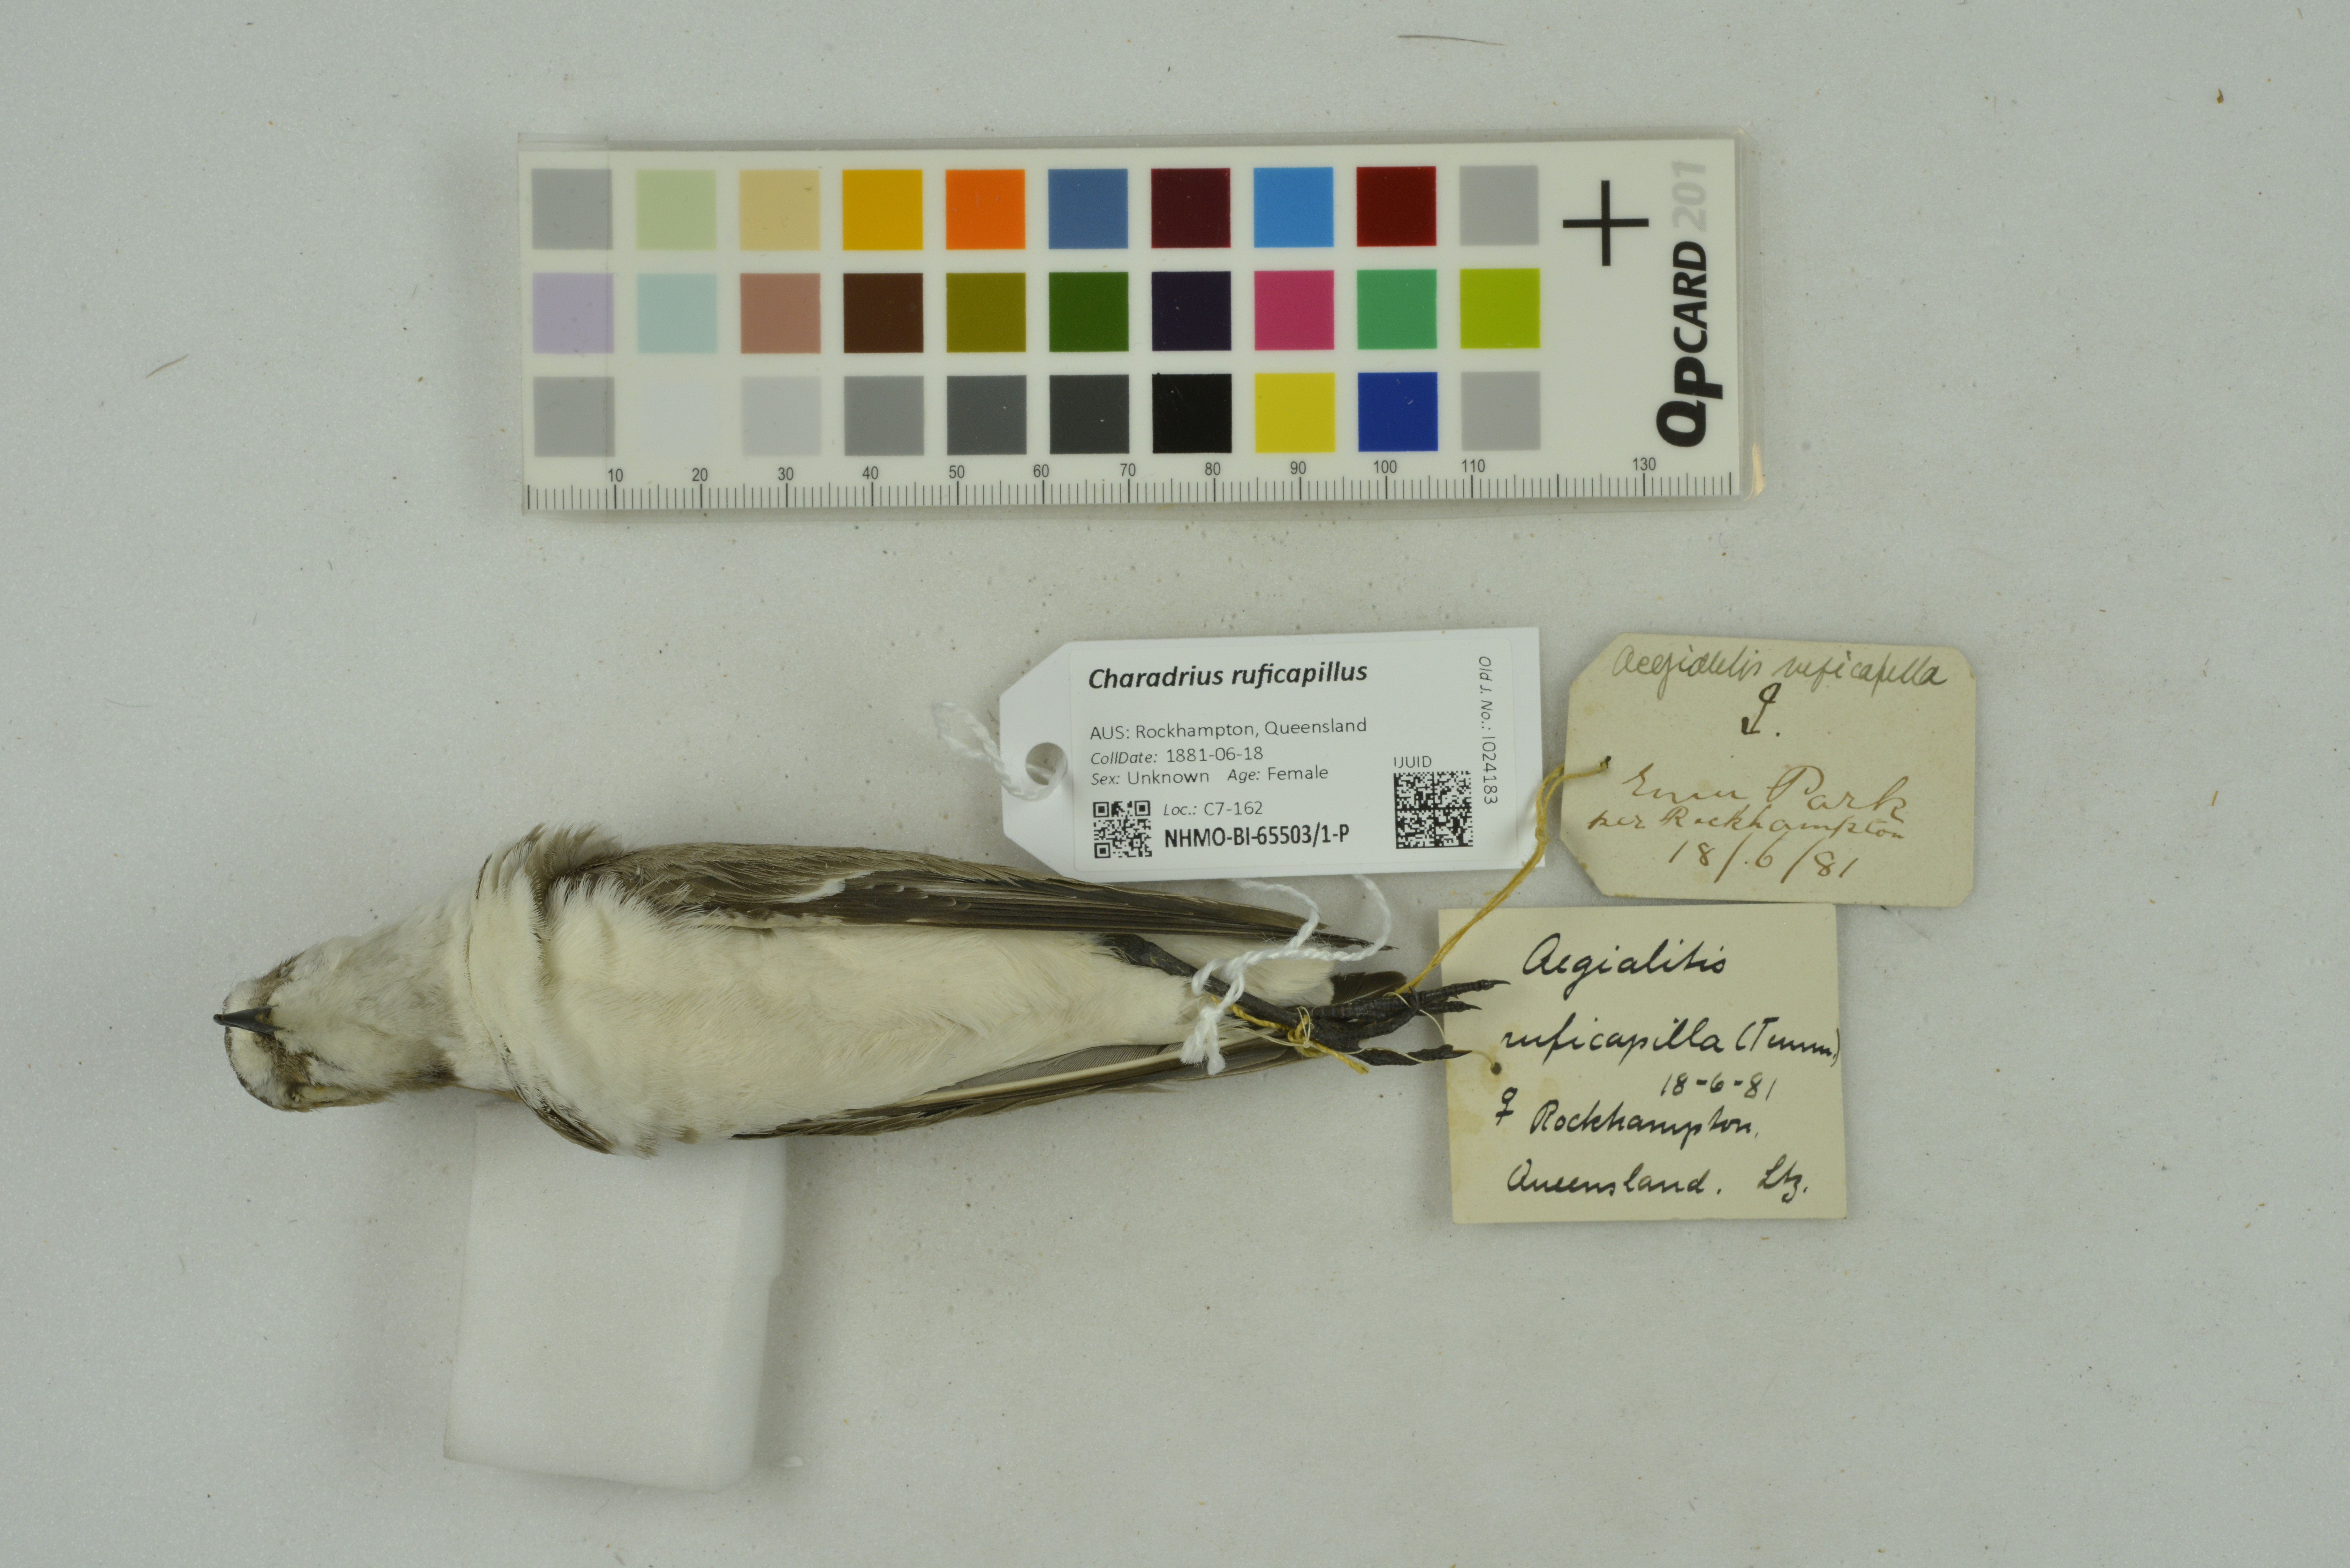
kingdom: Animalia
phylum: Chordata
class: Aves
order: Charadriiformes
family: Charadriidae
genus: Charadrius
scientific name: Charadrius ruficapillus
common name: Red-capped plover
